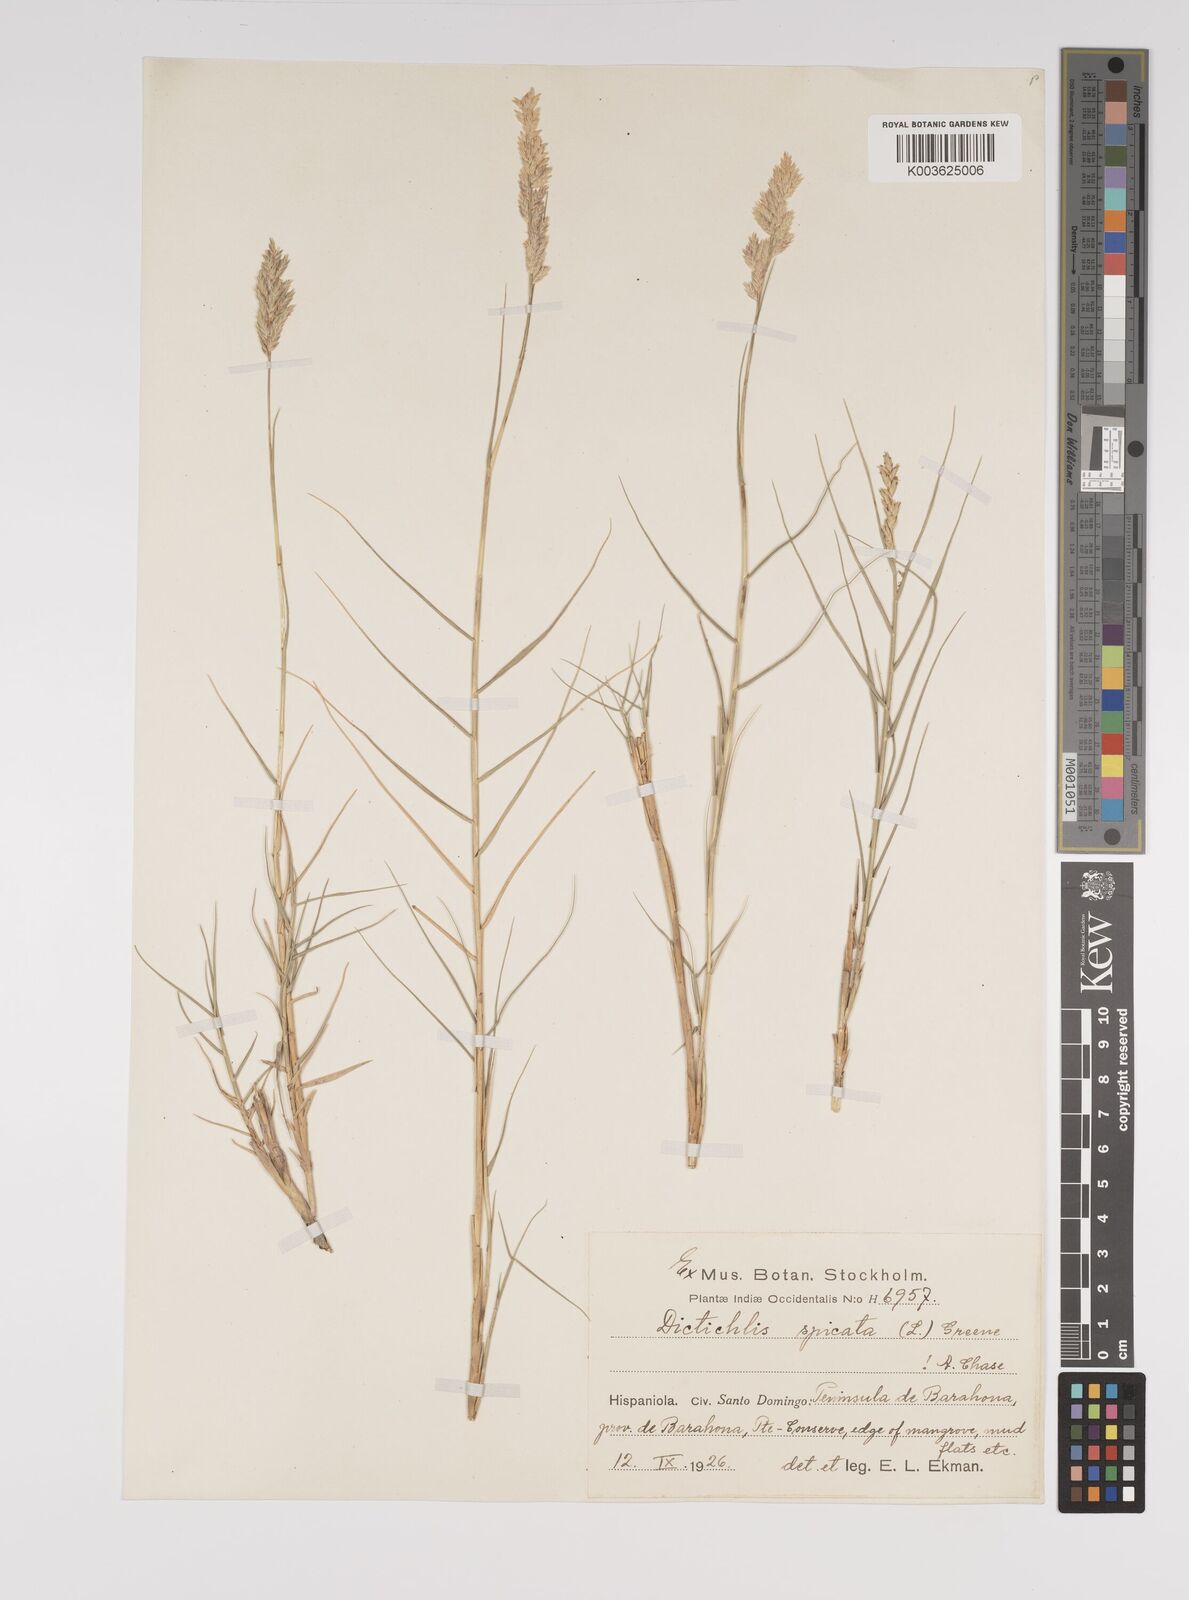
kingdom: Plantae
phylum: Tracheophyta
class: Liliopsida
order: Poales
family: Poaceae
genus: Distichlis
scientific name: Distichlis spicata
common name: Saltgrass
